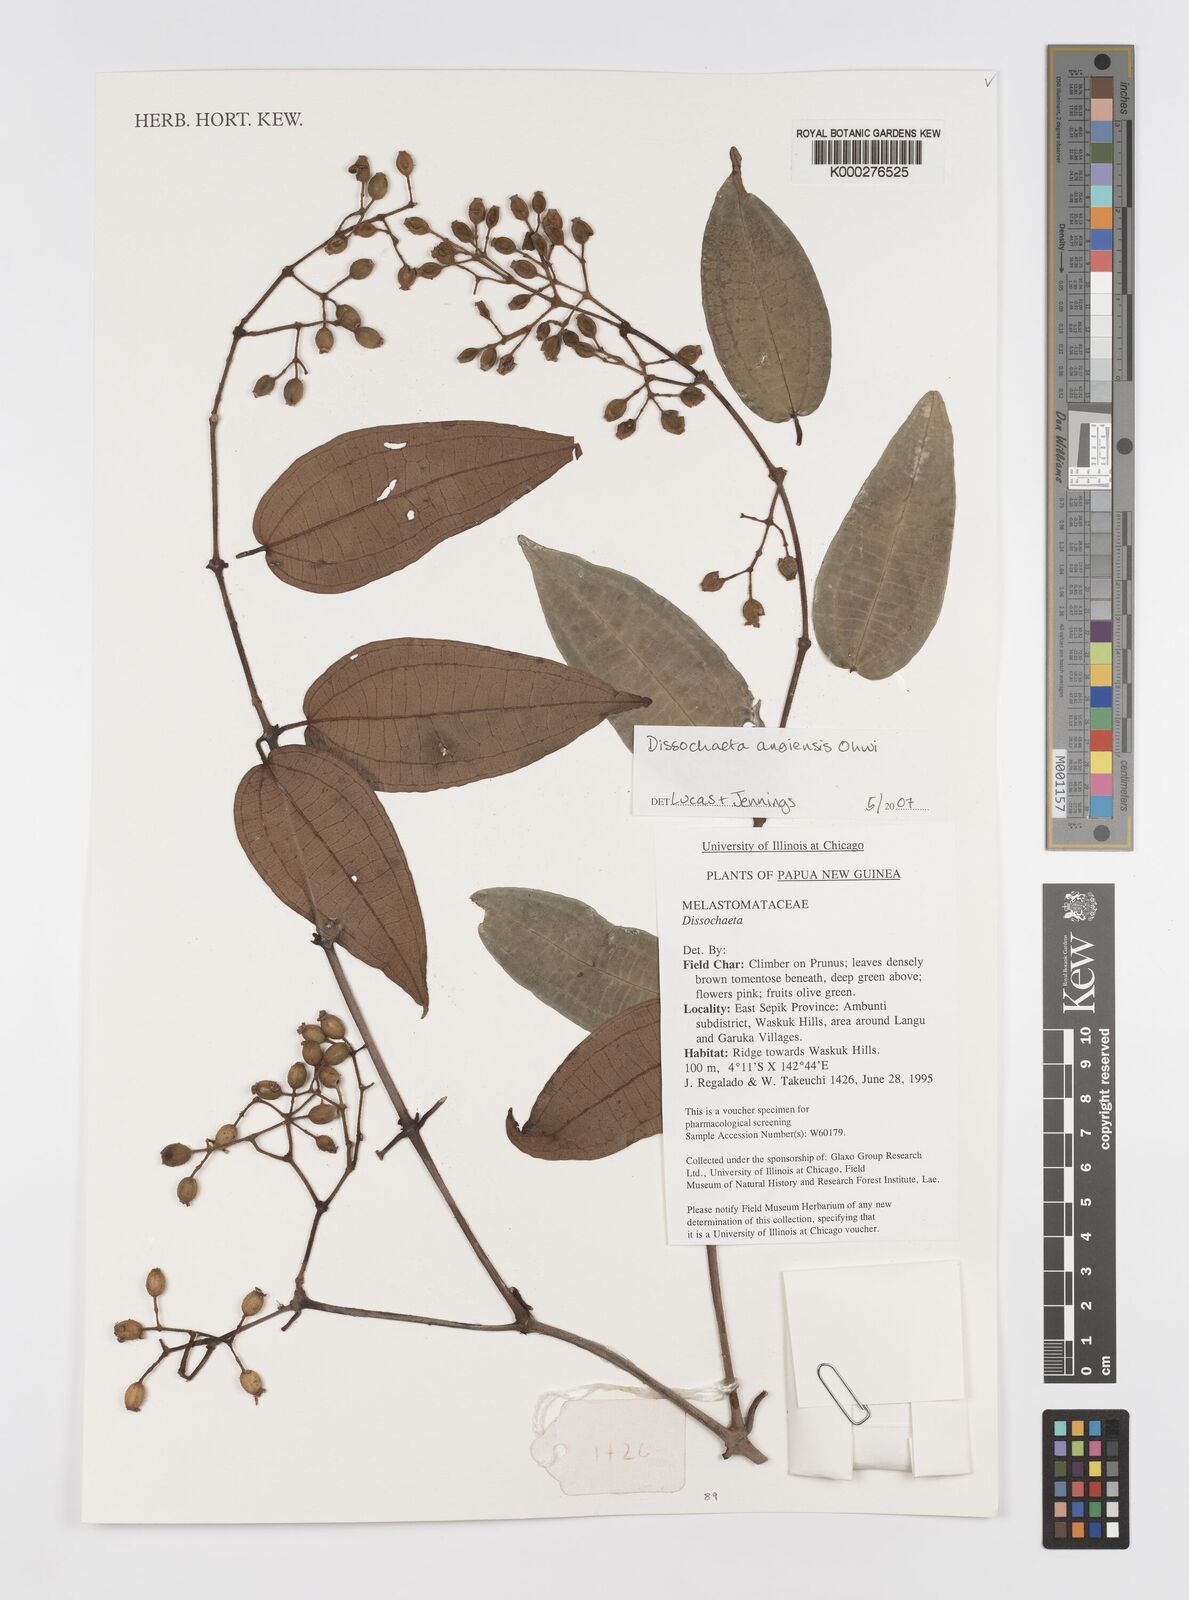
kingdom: Plantae
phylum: Tracheophyta
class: Magnoliopsida
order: Myrtales
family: Melastomataceae
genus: Dissochaeta
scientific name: Dissochaeta angiensis
